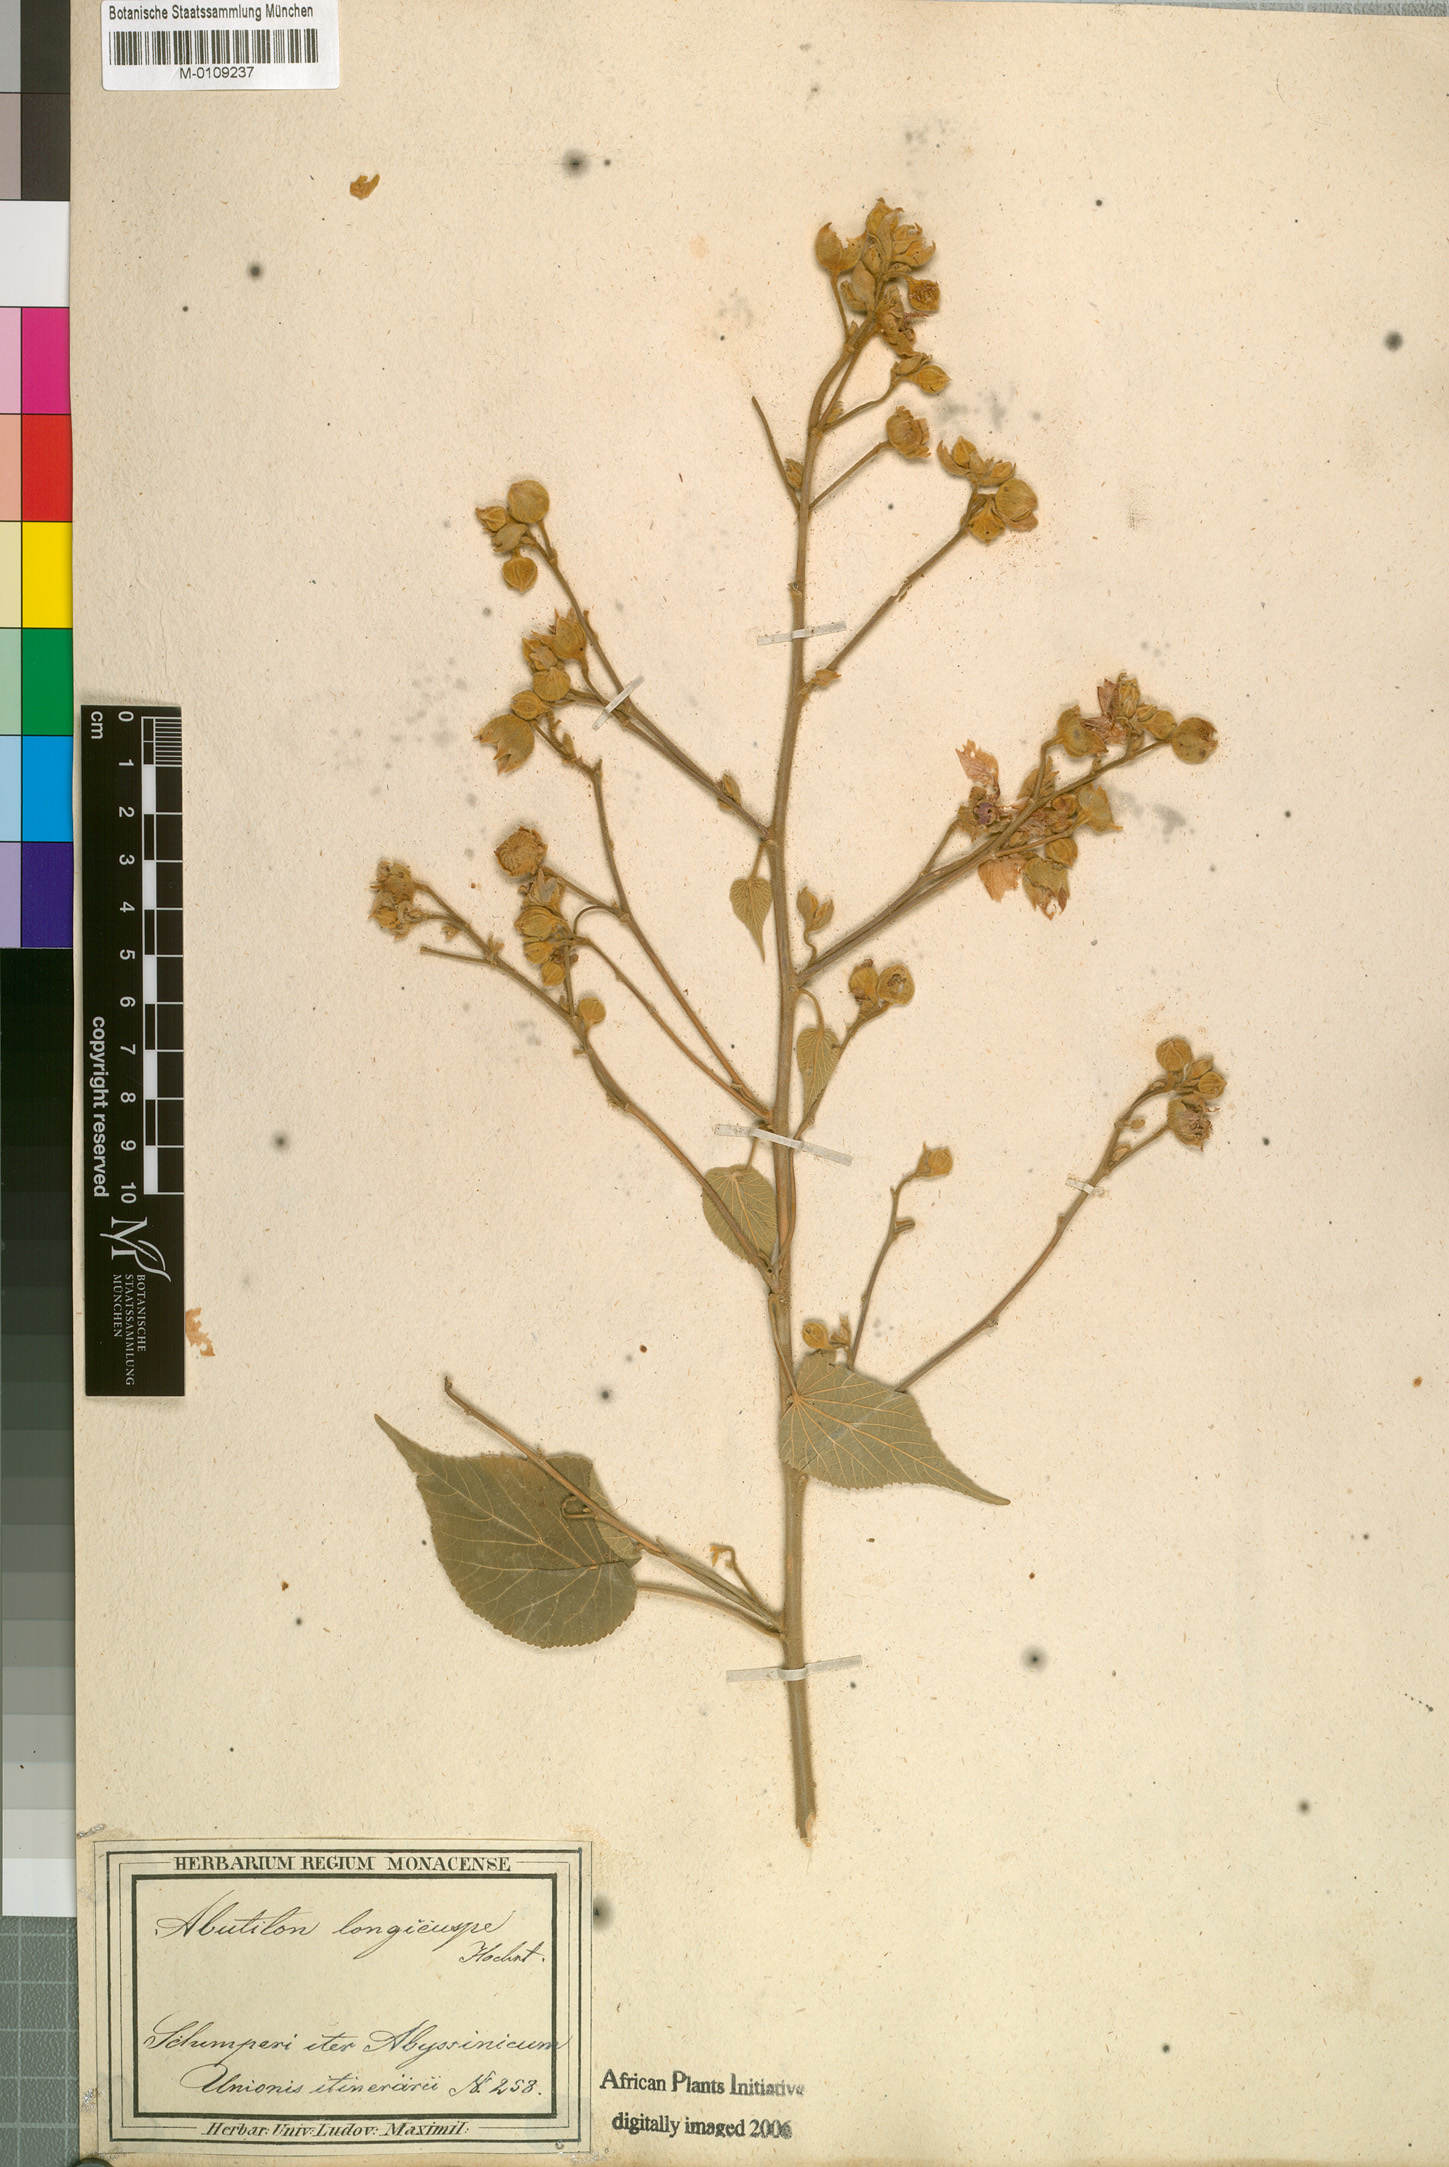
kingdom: Plantae
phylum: Tracheophyta
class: Magnoliopsida
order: Malvales
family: Malvaceae
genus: Abutilon
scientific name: Abutilon longicuspe
